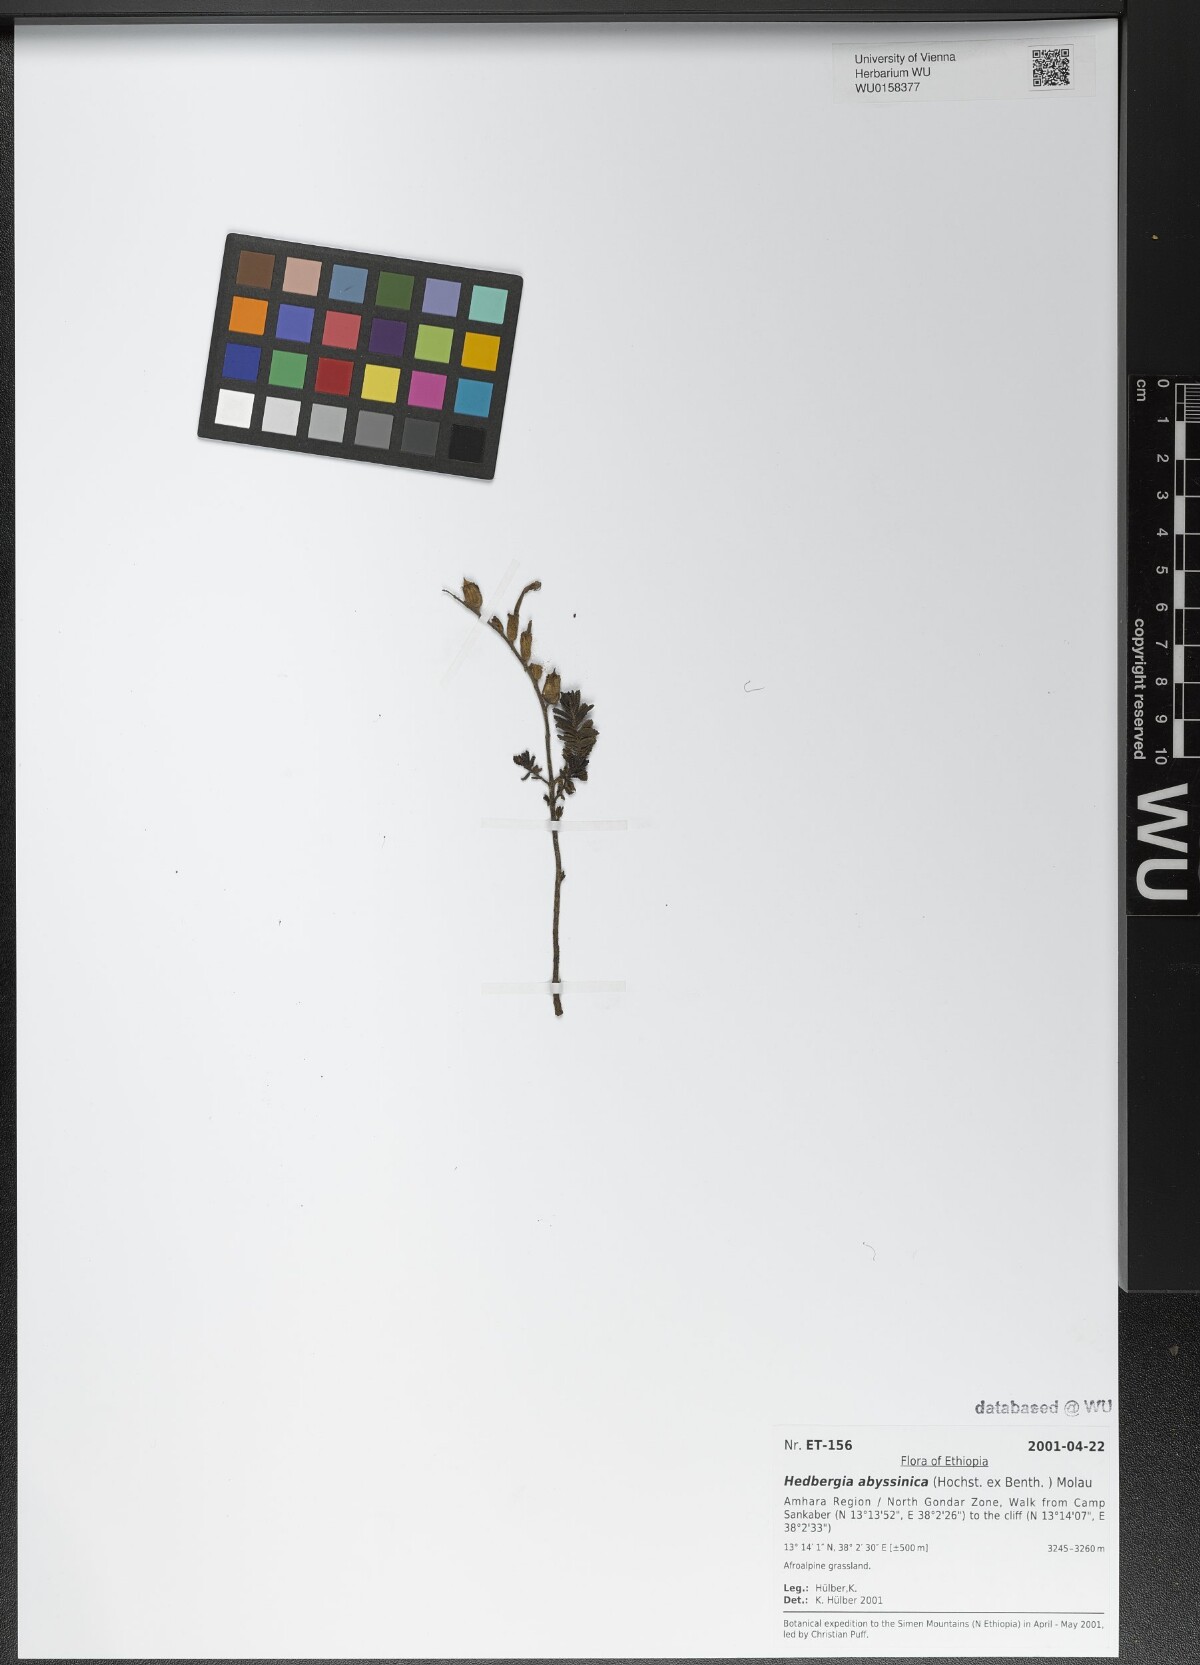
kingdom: Plantae
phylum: Tracheophyta
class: Magnoliopsida
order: Lamiales
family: Orobanchaceae
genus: Hedbergia
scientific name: Hedbergia abyssinica
